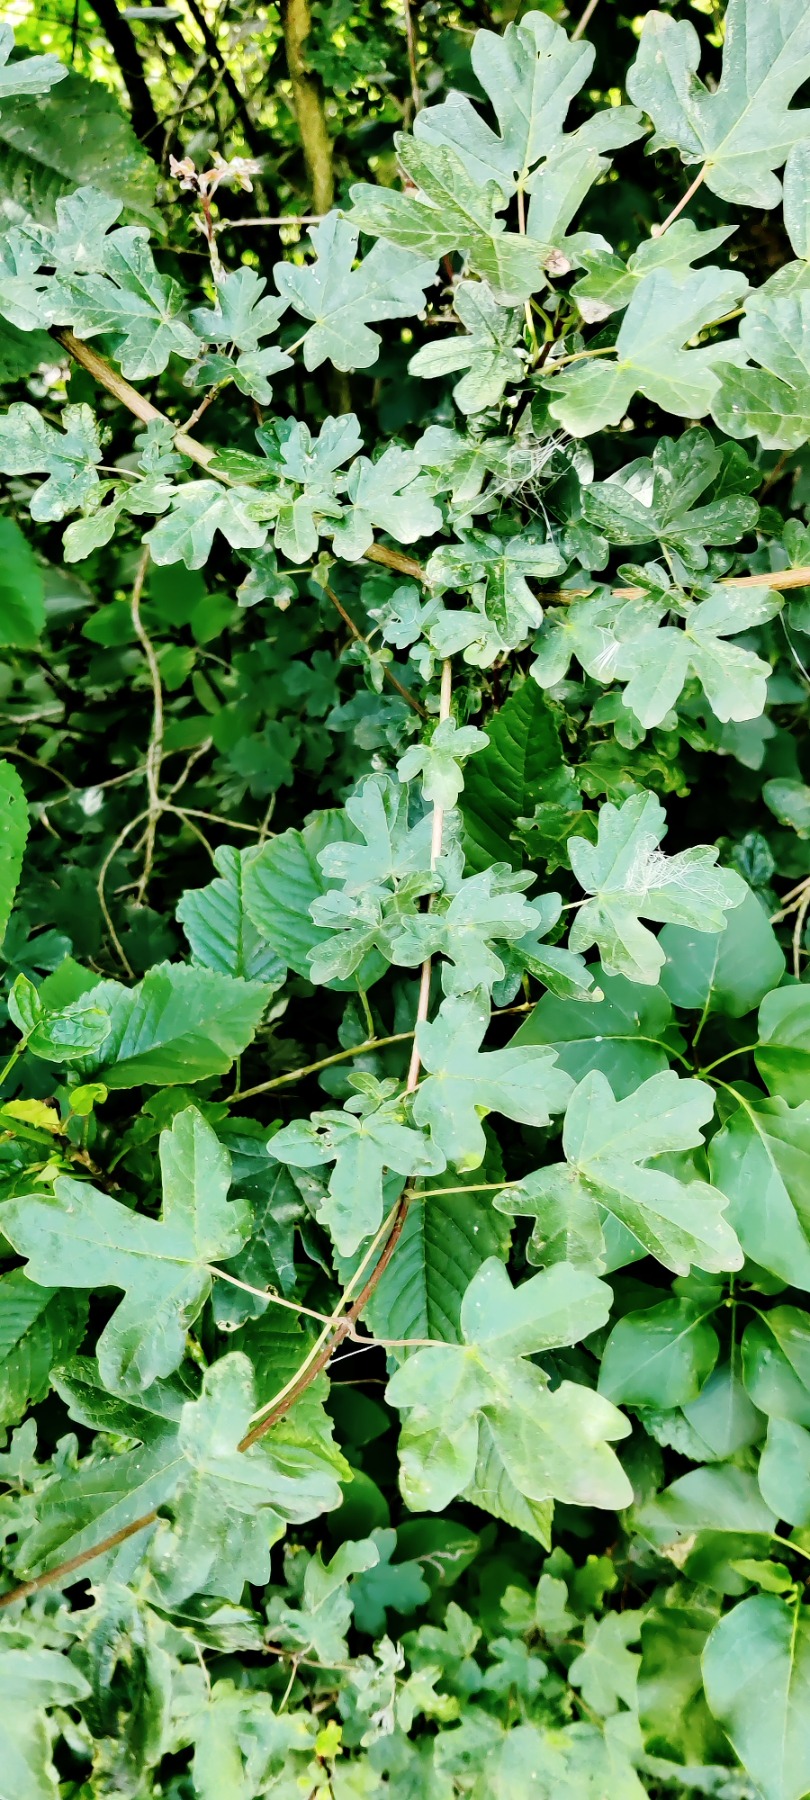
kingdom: Plantae
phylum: Tracheophyta
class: Magnoliopsida
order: Sapindales
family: Sapindaceae
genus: Acer
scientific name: Acer campestre
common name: Navr
